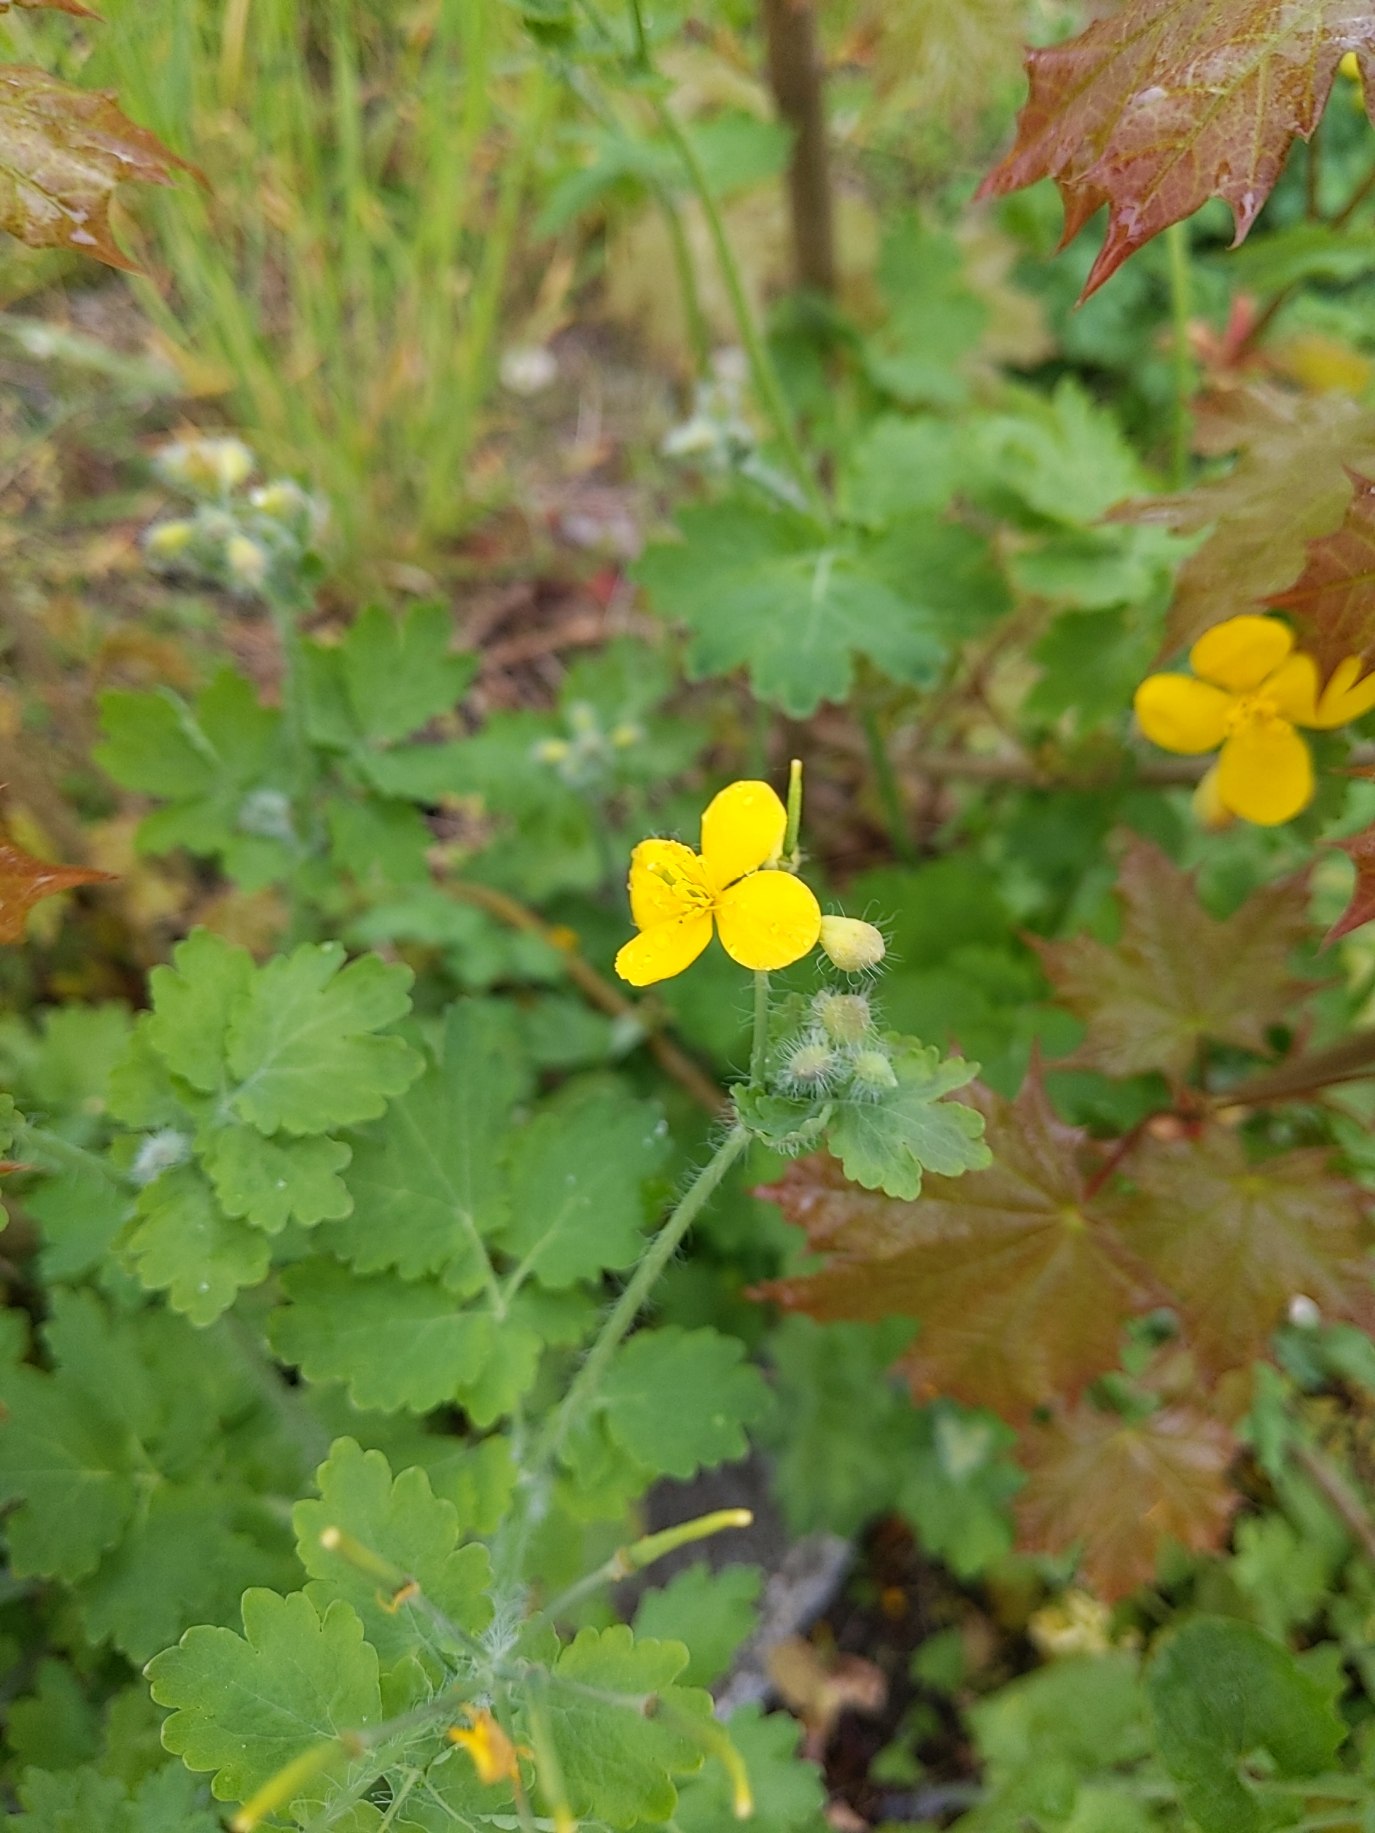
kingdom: Plantae
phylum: Tracheophyta
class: Magnoliopsida
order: Ranunculales
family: Papaveraceae
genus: Chelidonium
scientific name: Chelidonium majus
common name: Svaleurt
